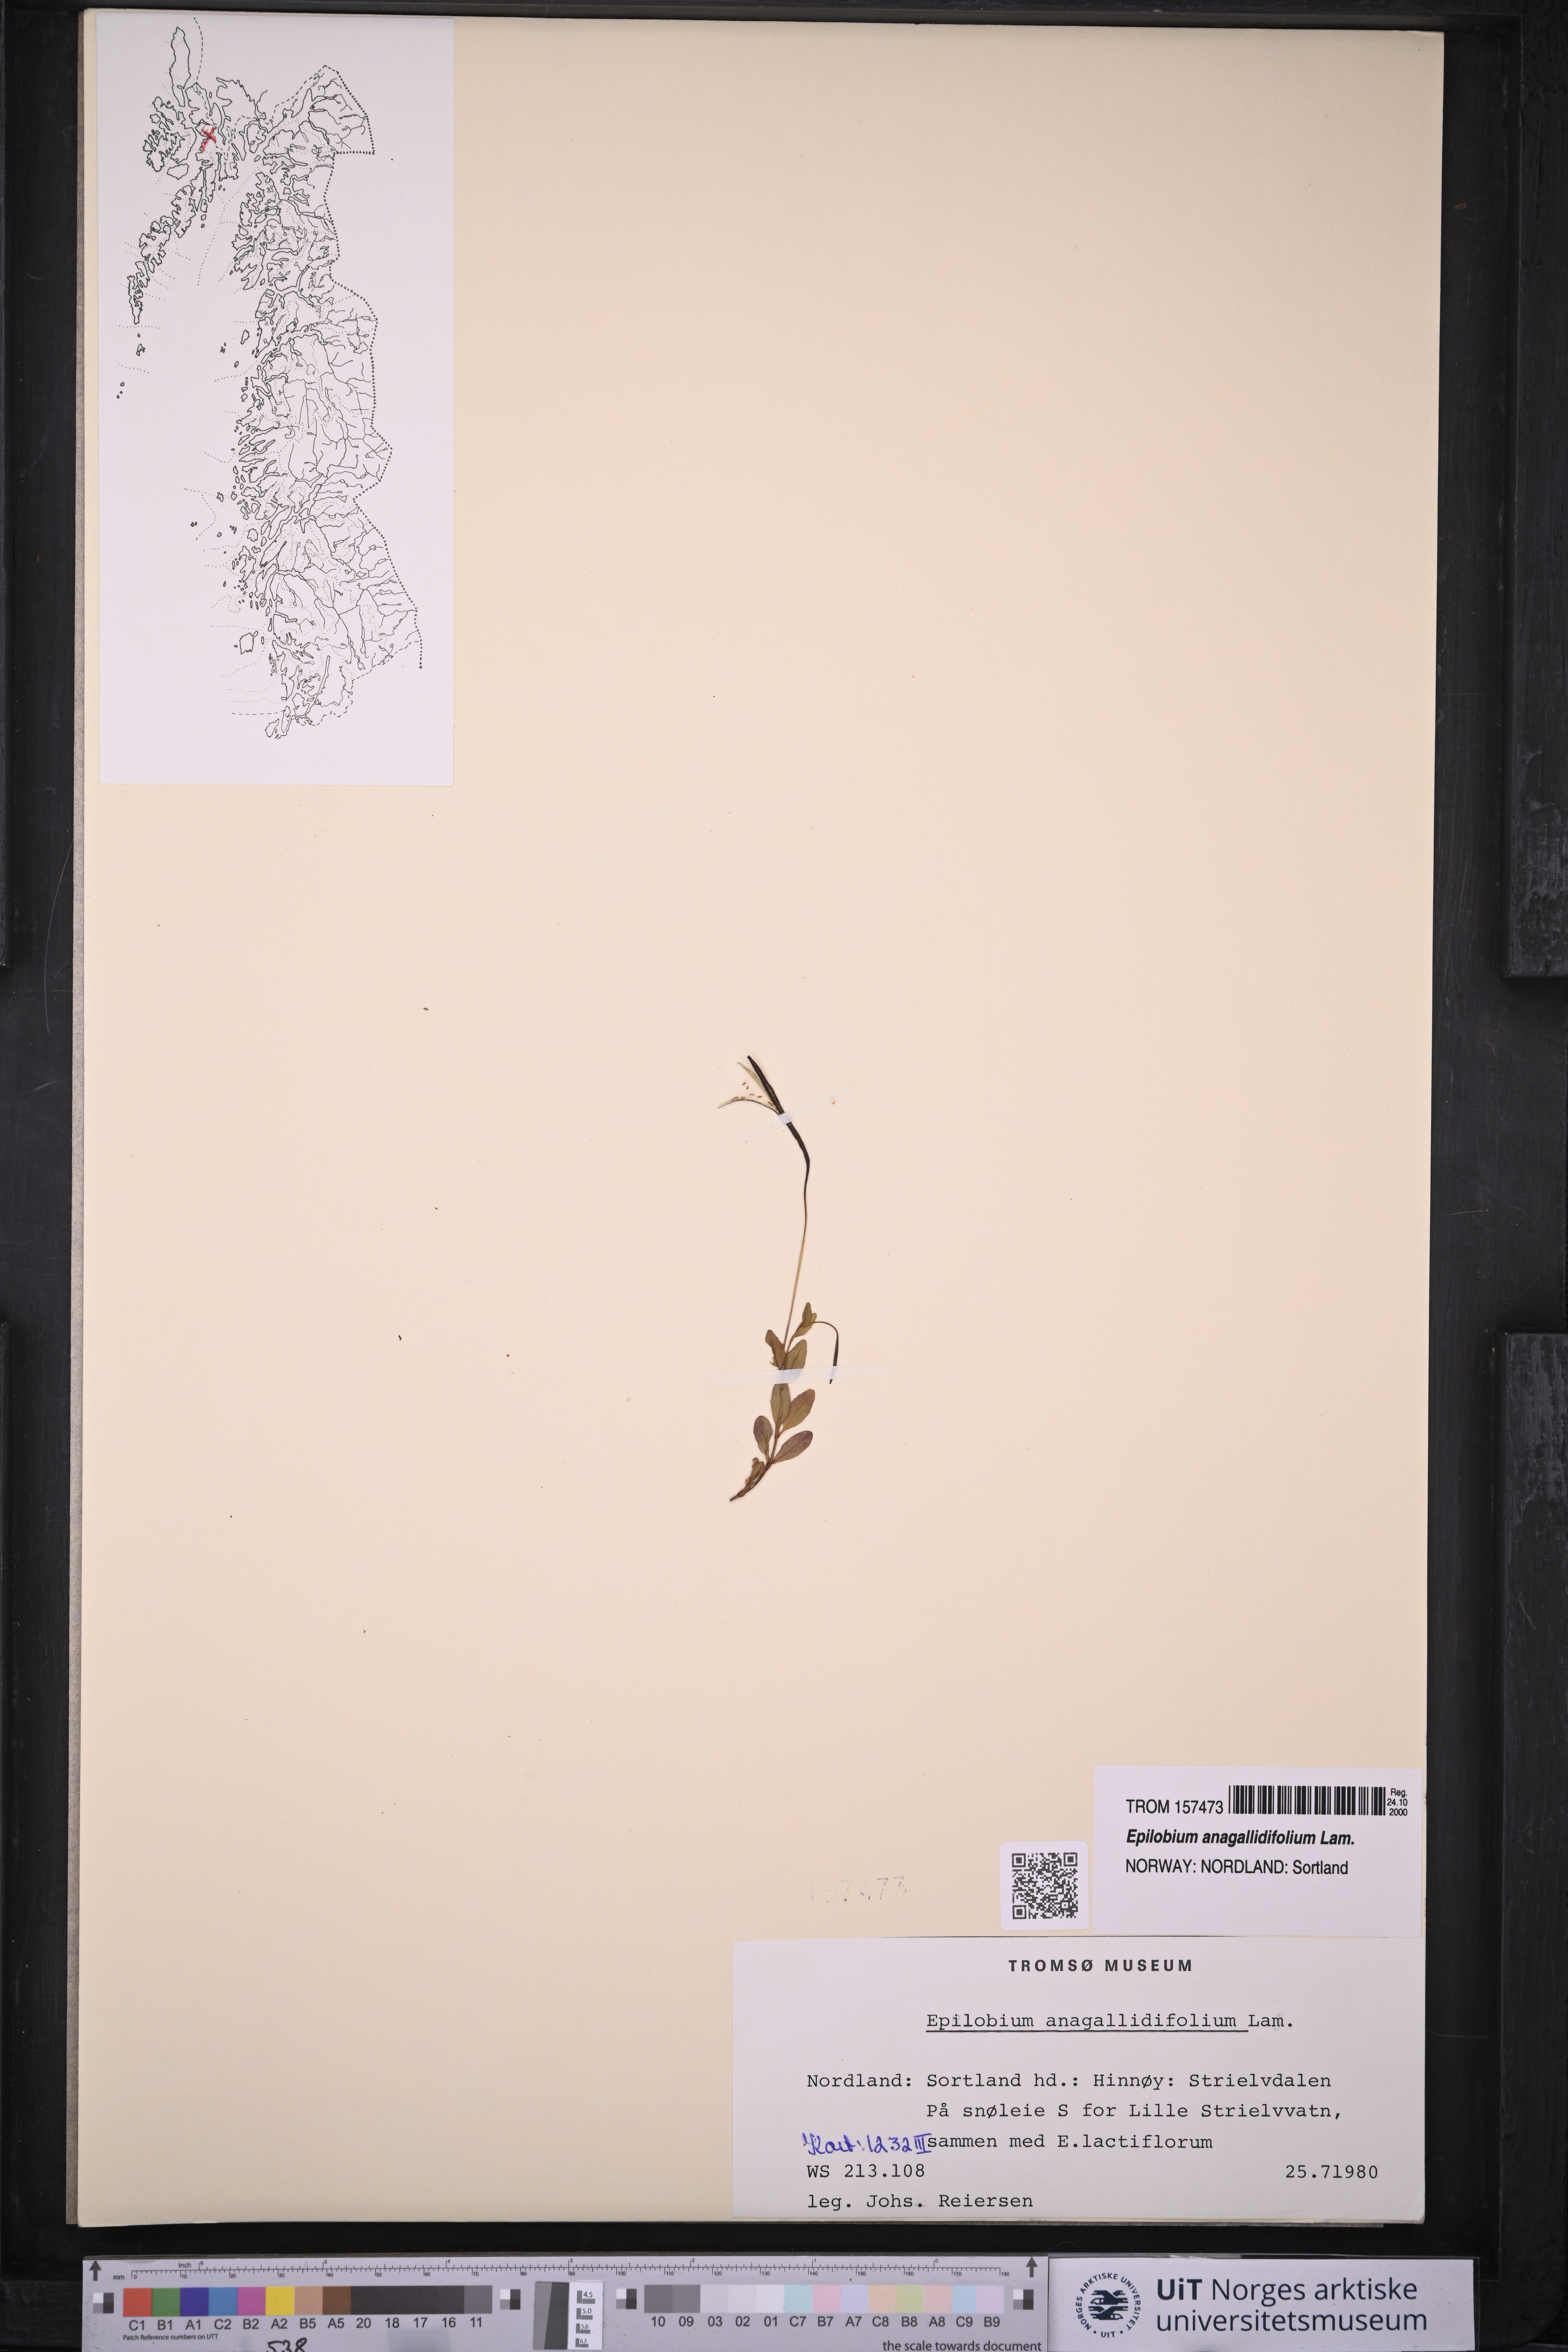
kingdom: Plantae
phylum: Tracheophyta
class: Magnoliopsida
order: Myrtales
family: Onagraceae
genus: Epilobium
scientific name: Epilobium anagallidifolium
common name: Alpine willowherb
